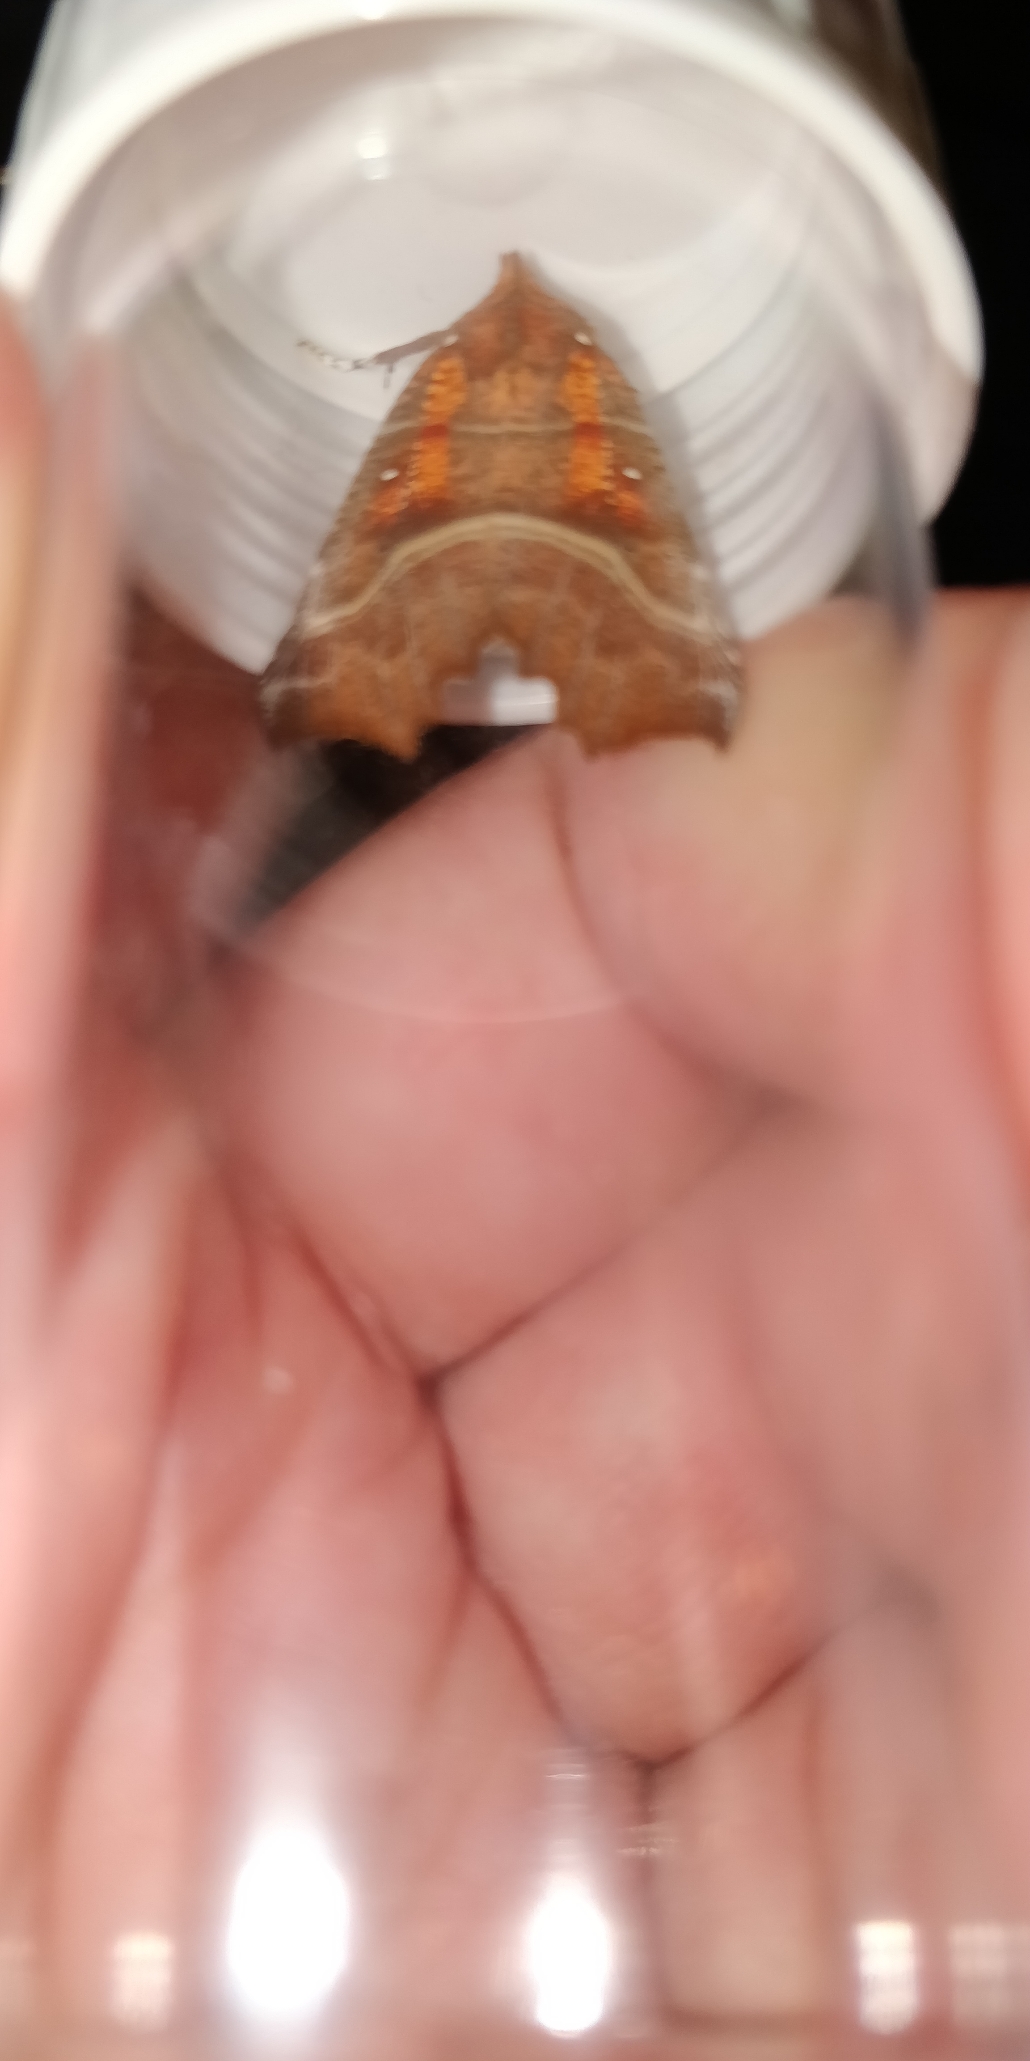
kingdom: Animalia
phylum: Arthropoda
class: Insecta
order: Lepidoptera
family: Erebidae
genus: Scoliopteryx
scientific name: Scoliopteryx libatrix
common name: Husmoderugle
